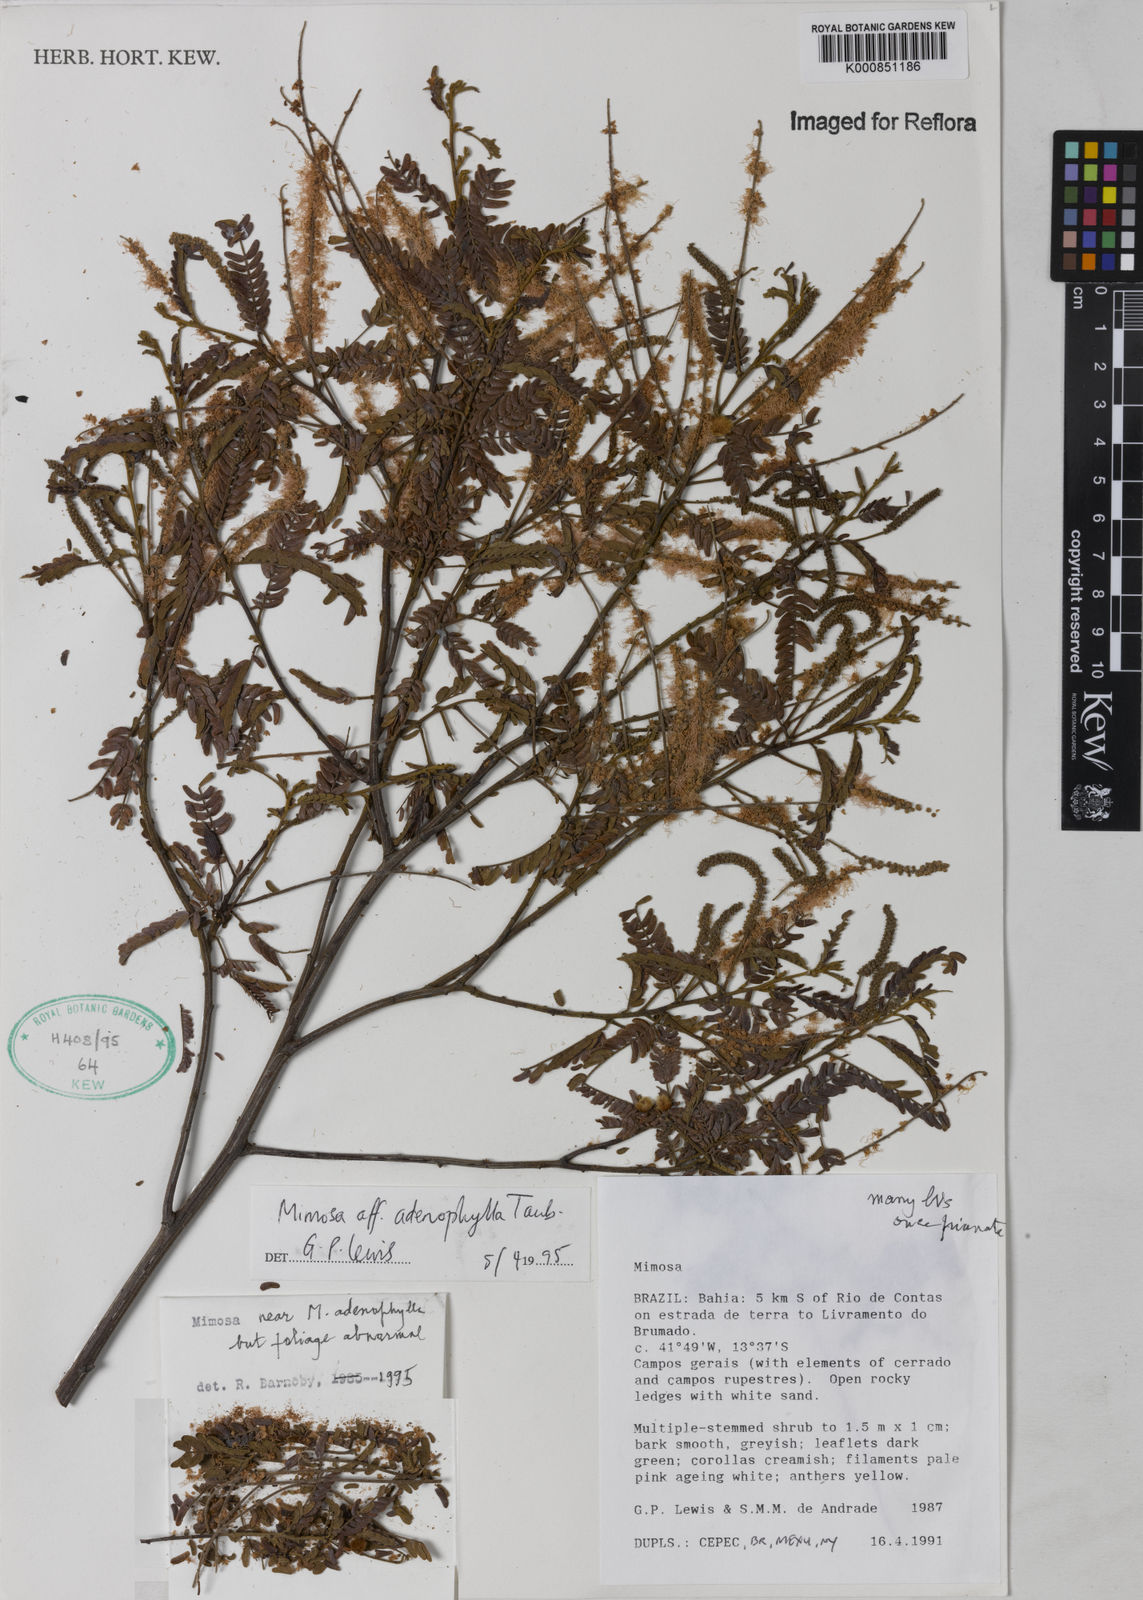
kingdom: Plantae
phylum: Tracheophyta
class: Magnoliopsida
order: Fabales
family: Fabaceae
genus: Mimosa
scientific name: Mimosa pteridifolia
